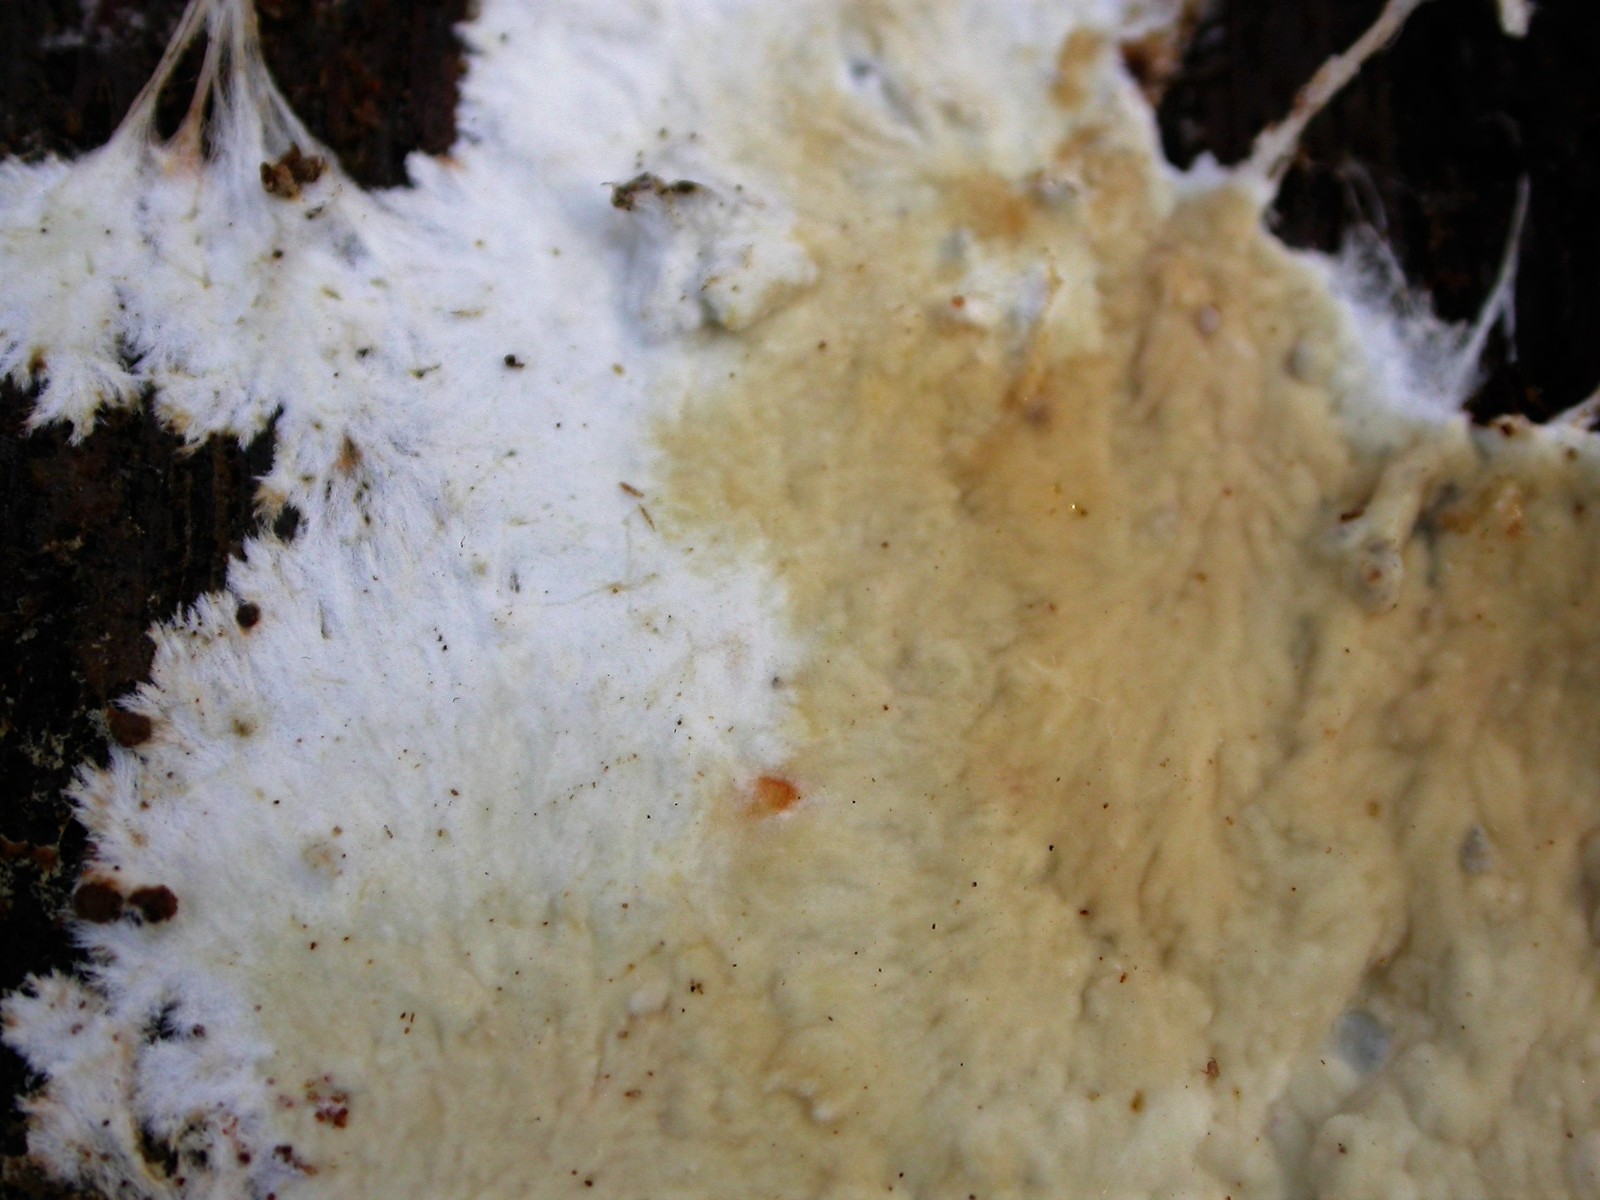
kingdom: Fungi
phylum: Basidiomycota
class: Agaricomycetes
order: Polyporales
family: Phanerochaetaceae
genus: Phanerochaete
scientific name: Phanerochaete velutina
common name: dunet randtråd
